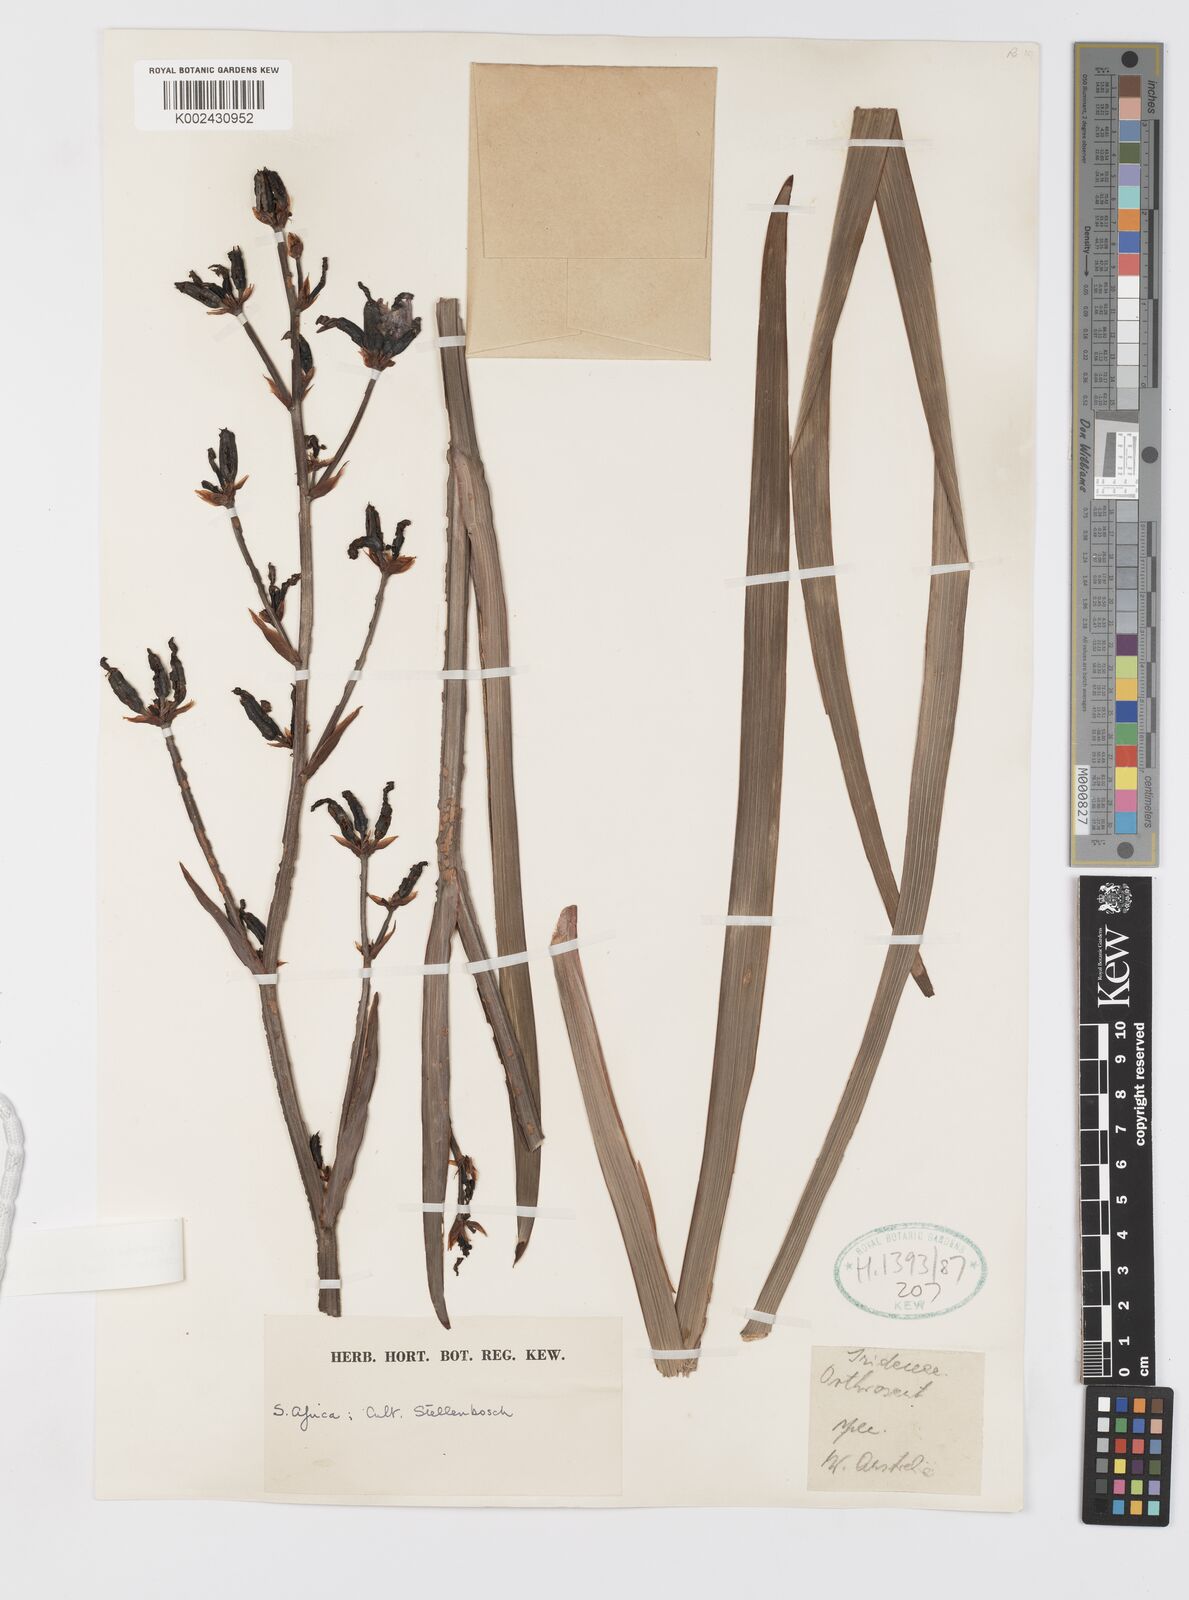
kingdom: Plantae
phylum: Tracheophyta
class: Liliopsida
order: Asparagales
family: Iridaceae
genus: Aristea
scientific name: Aristea ensifolia
